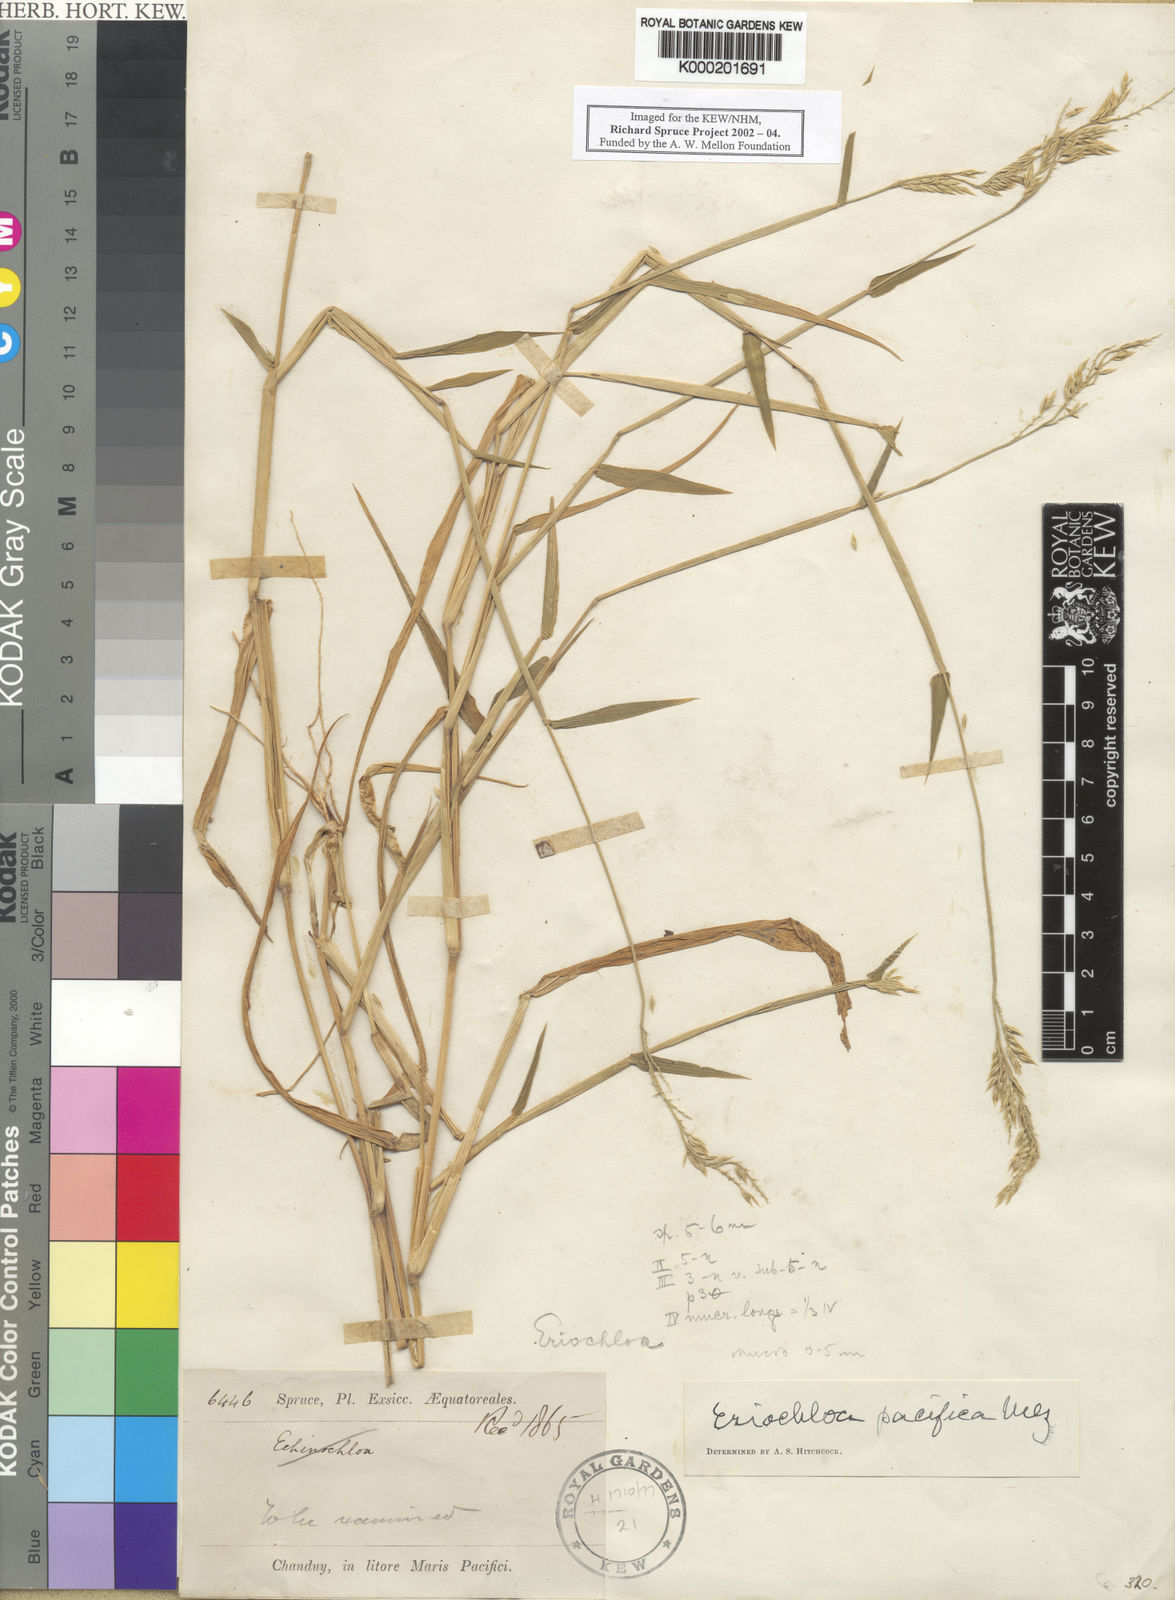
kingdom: Plantae
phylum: Tracheophyta
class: Liliopsida
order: Poales
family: Poaceae
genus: Eriochloa
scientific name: Eriochloa pacifica
